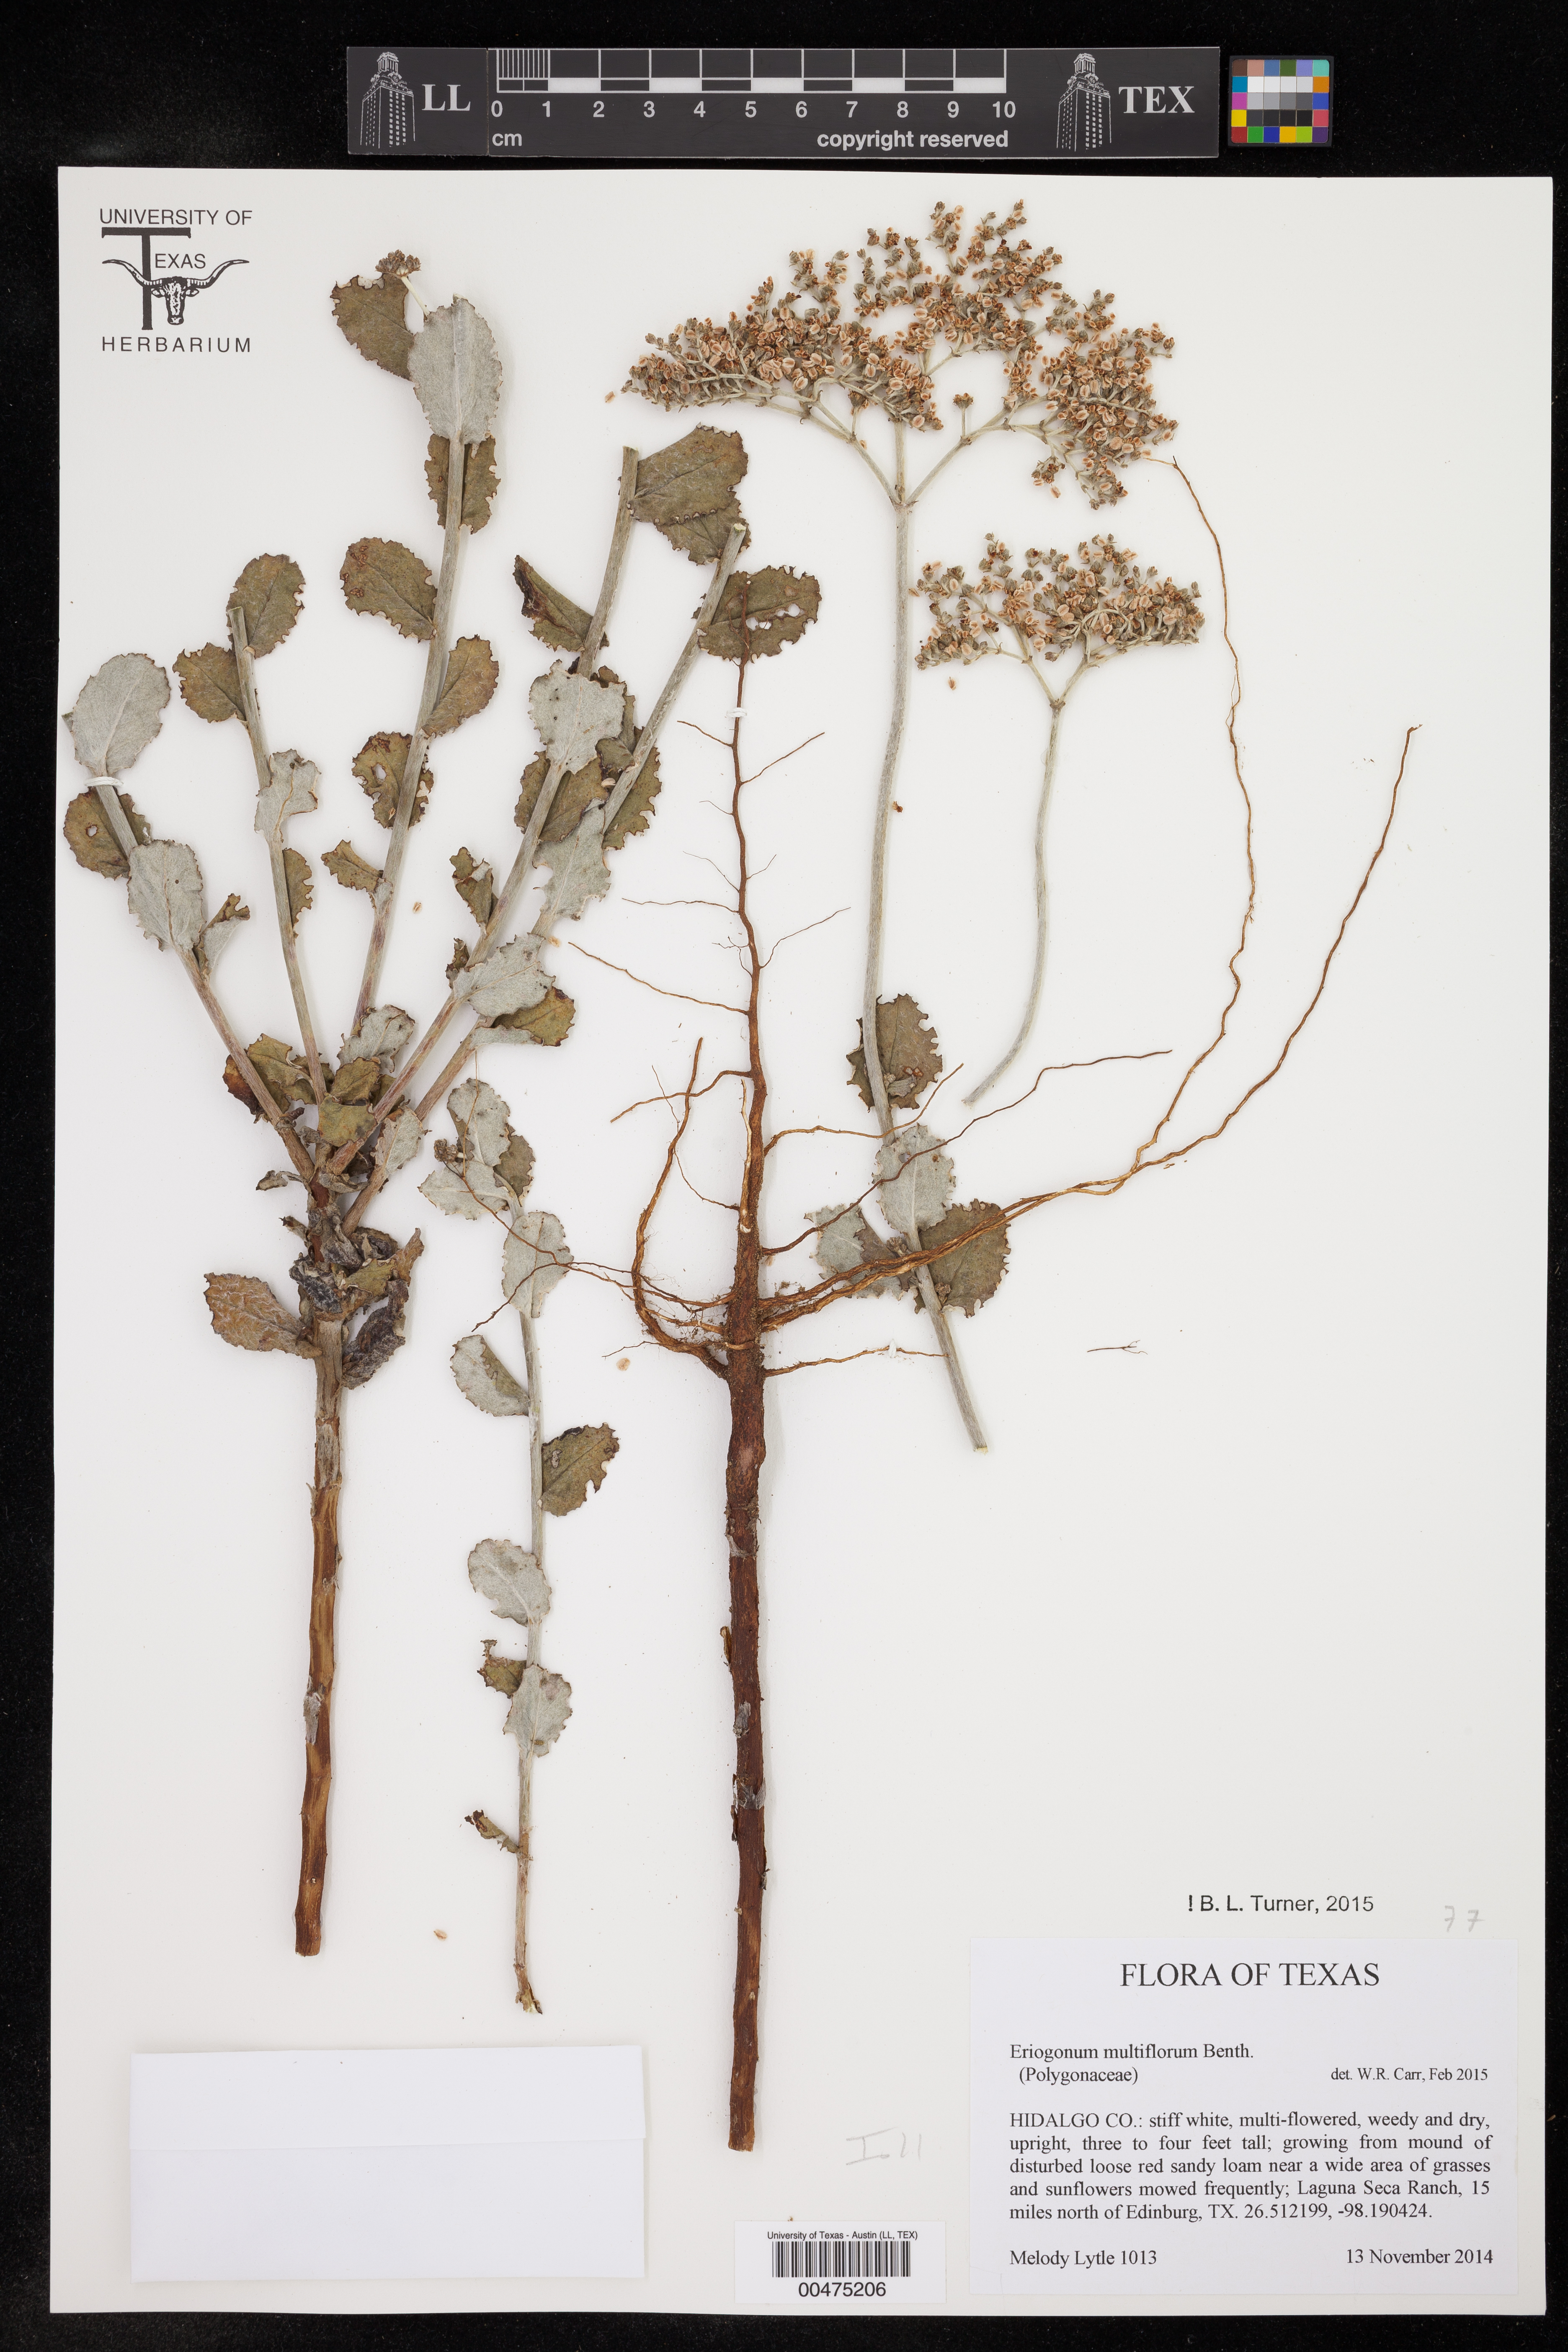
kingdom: Plantae
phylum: Tracheophyta
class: Magnoliopsida
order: Caryophyllales
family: Polygonaceae
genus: Eriogonum
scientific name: Eriogonum multiflorum
